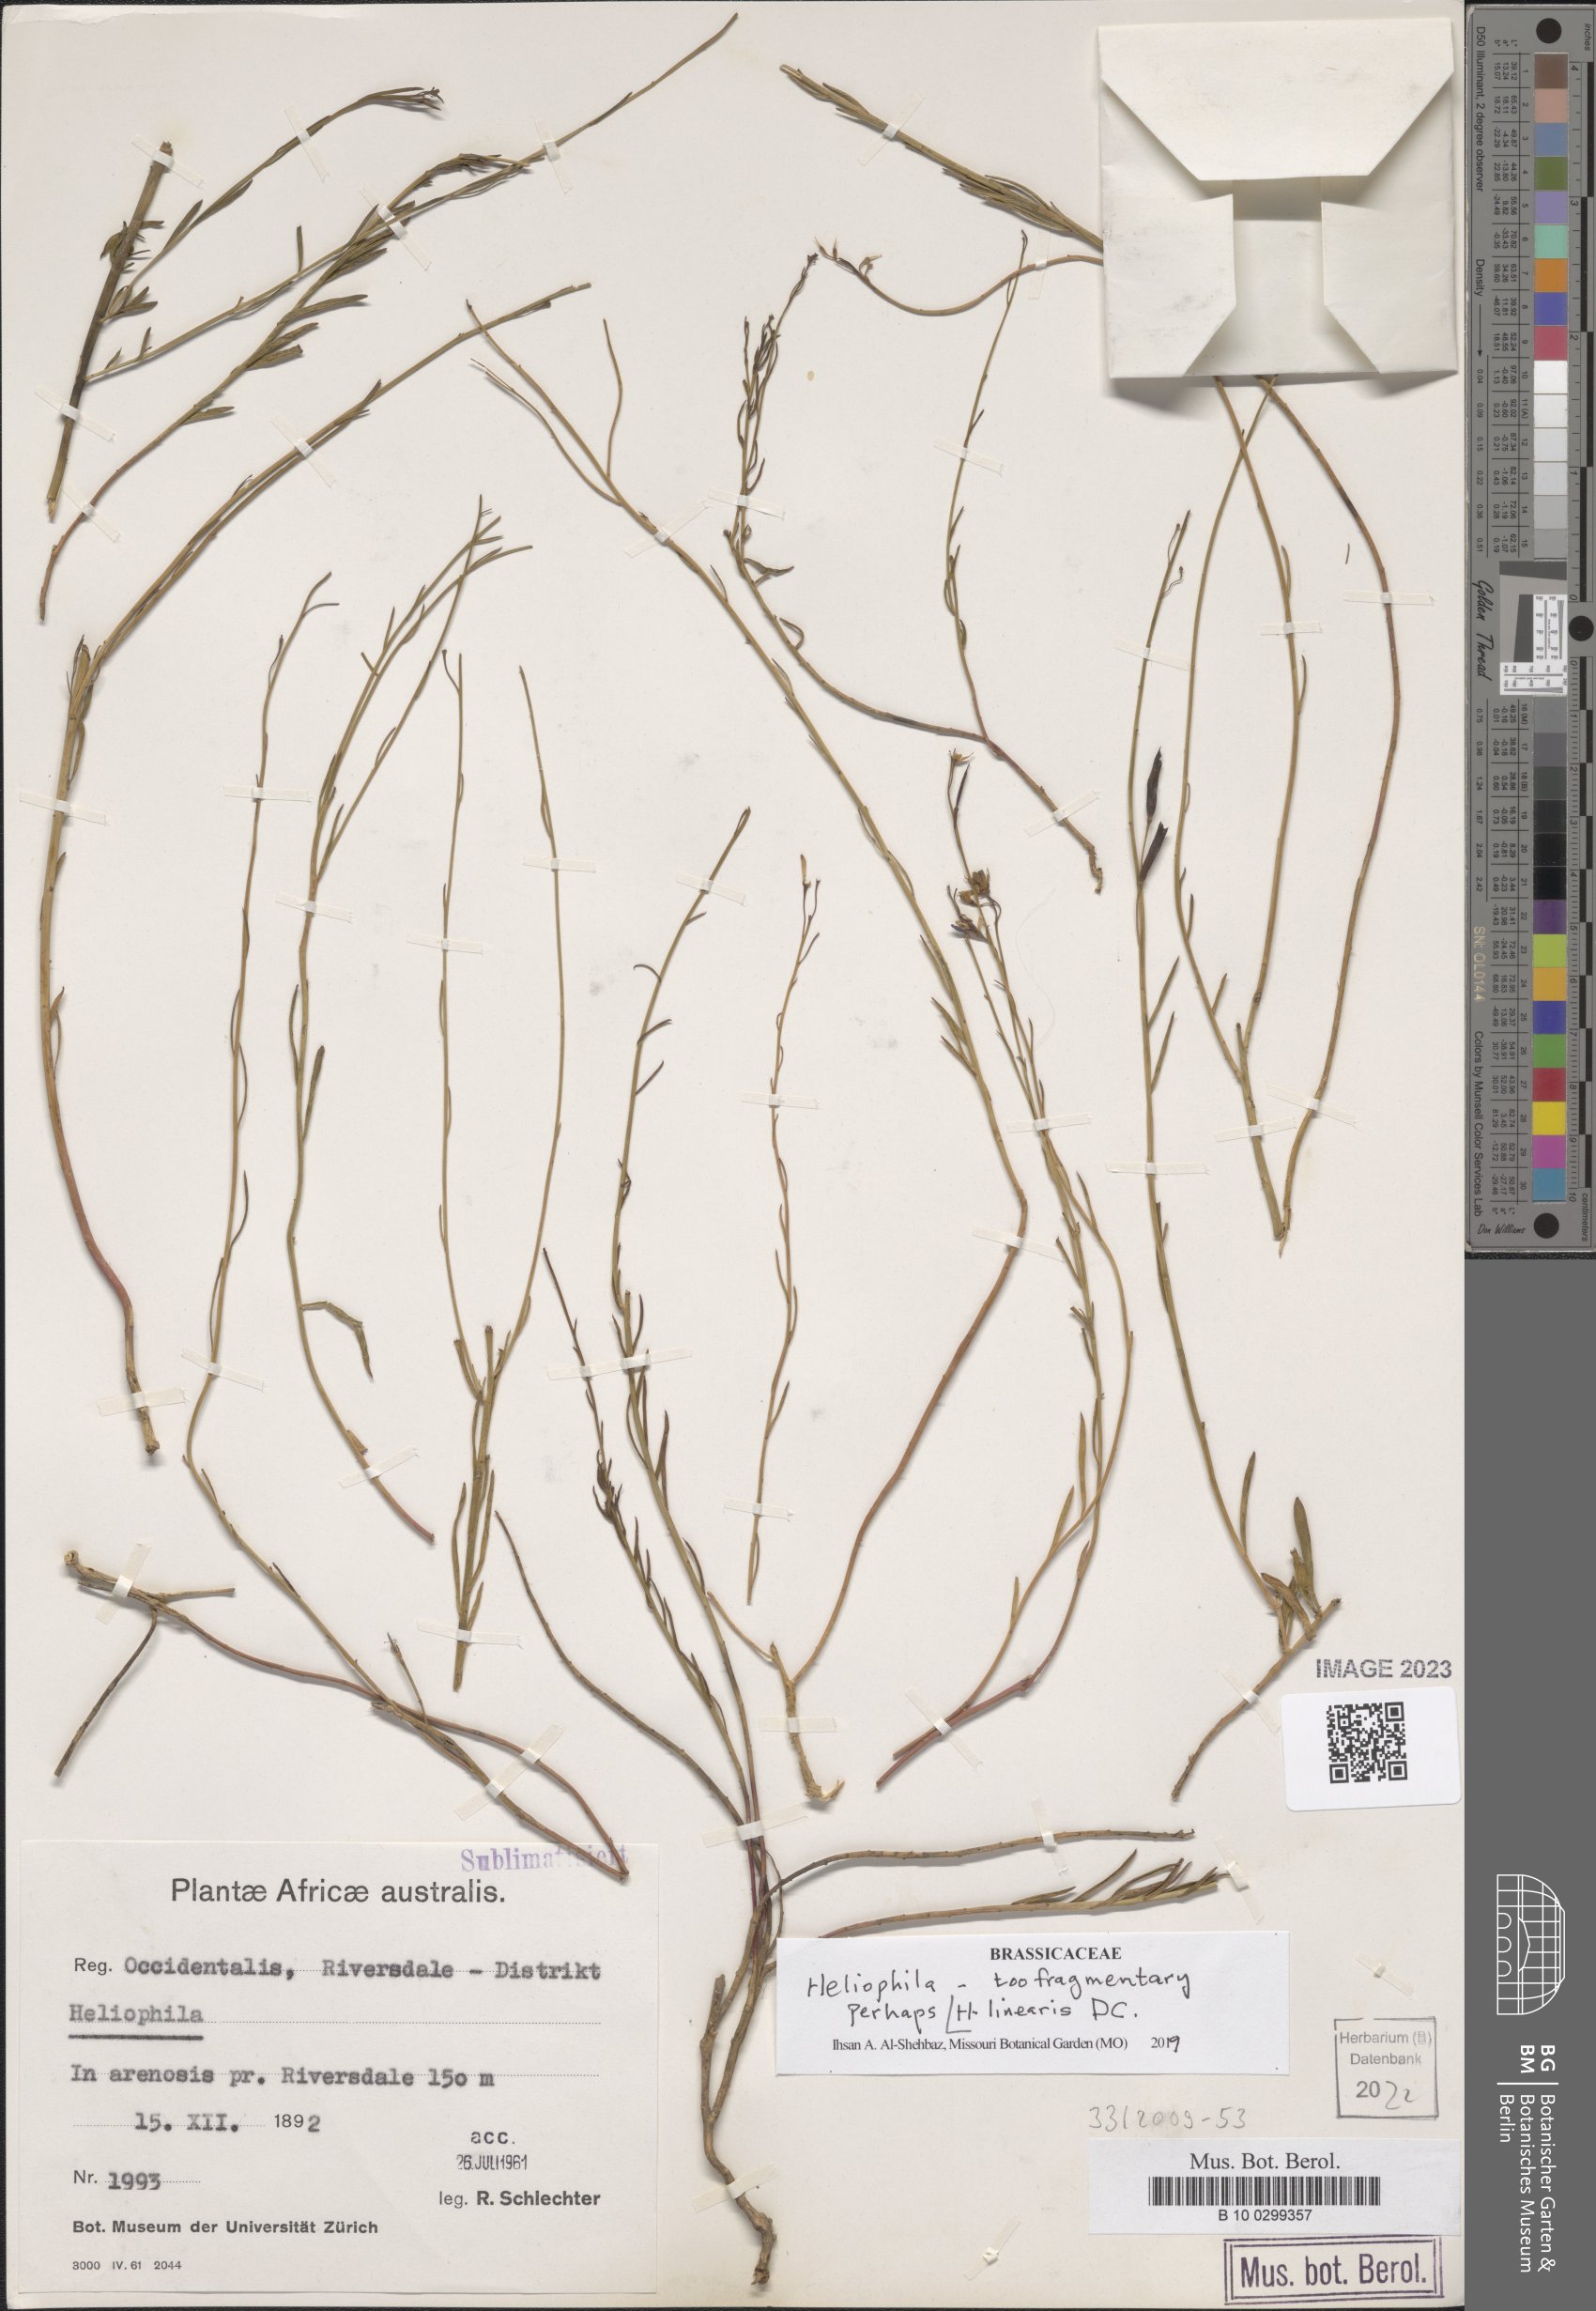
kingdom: Plantae
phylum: Tracheophyta
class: Magnoliopsida
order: Brassicales
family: Brassicaceae
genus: Heliophila
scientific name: Heliophila linearis
